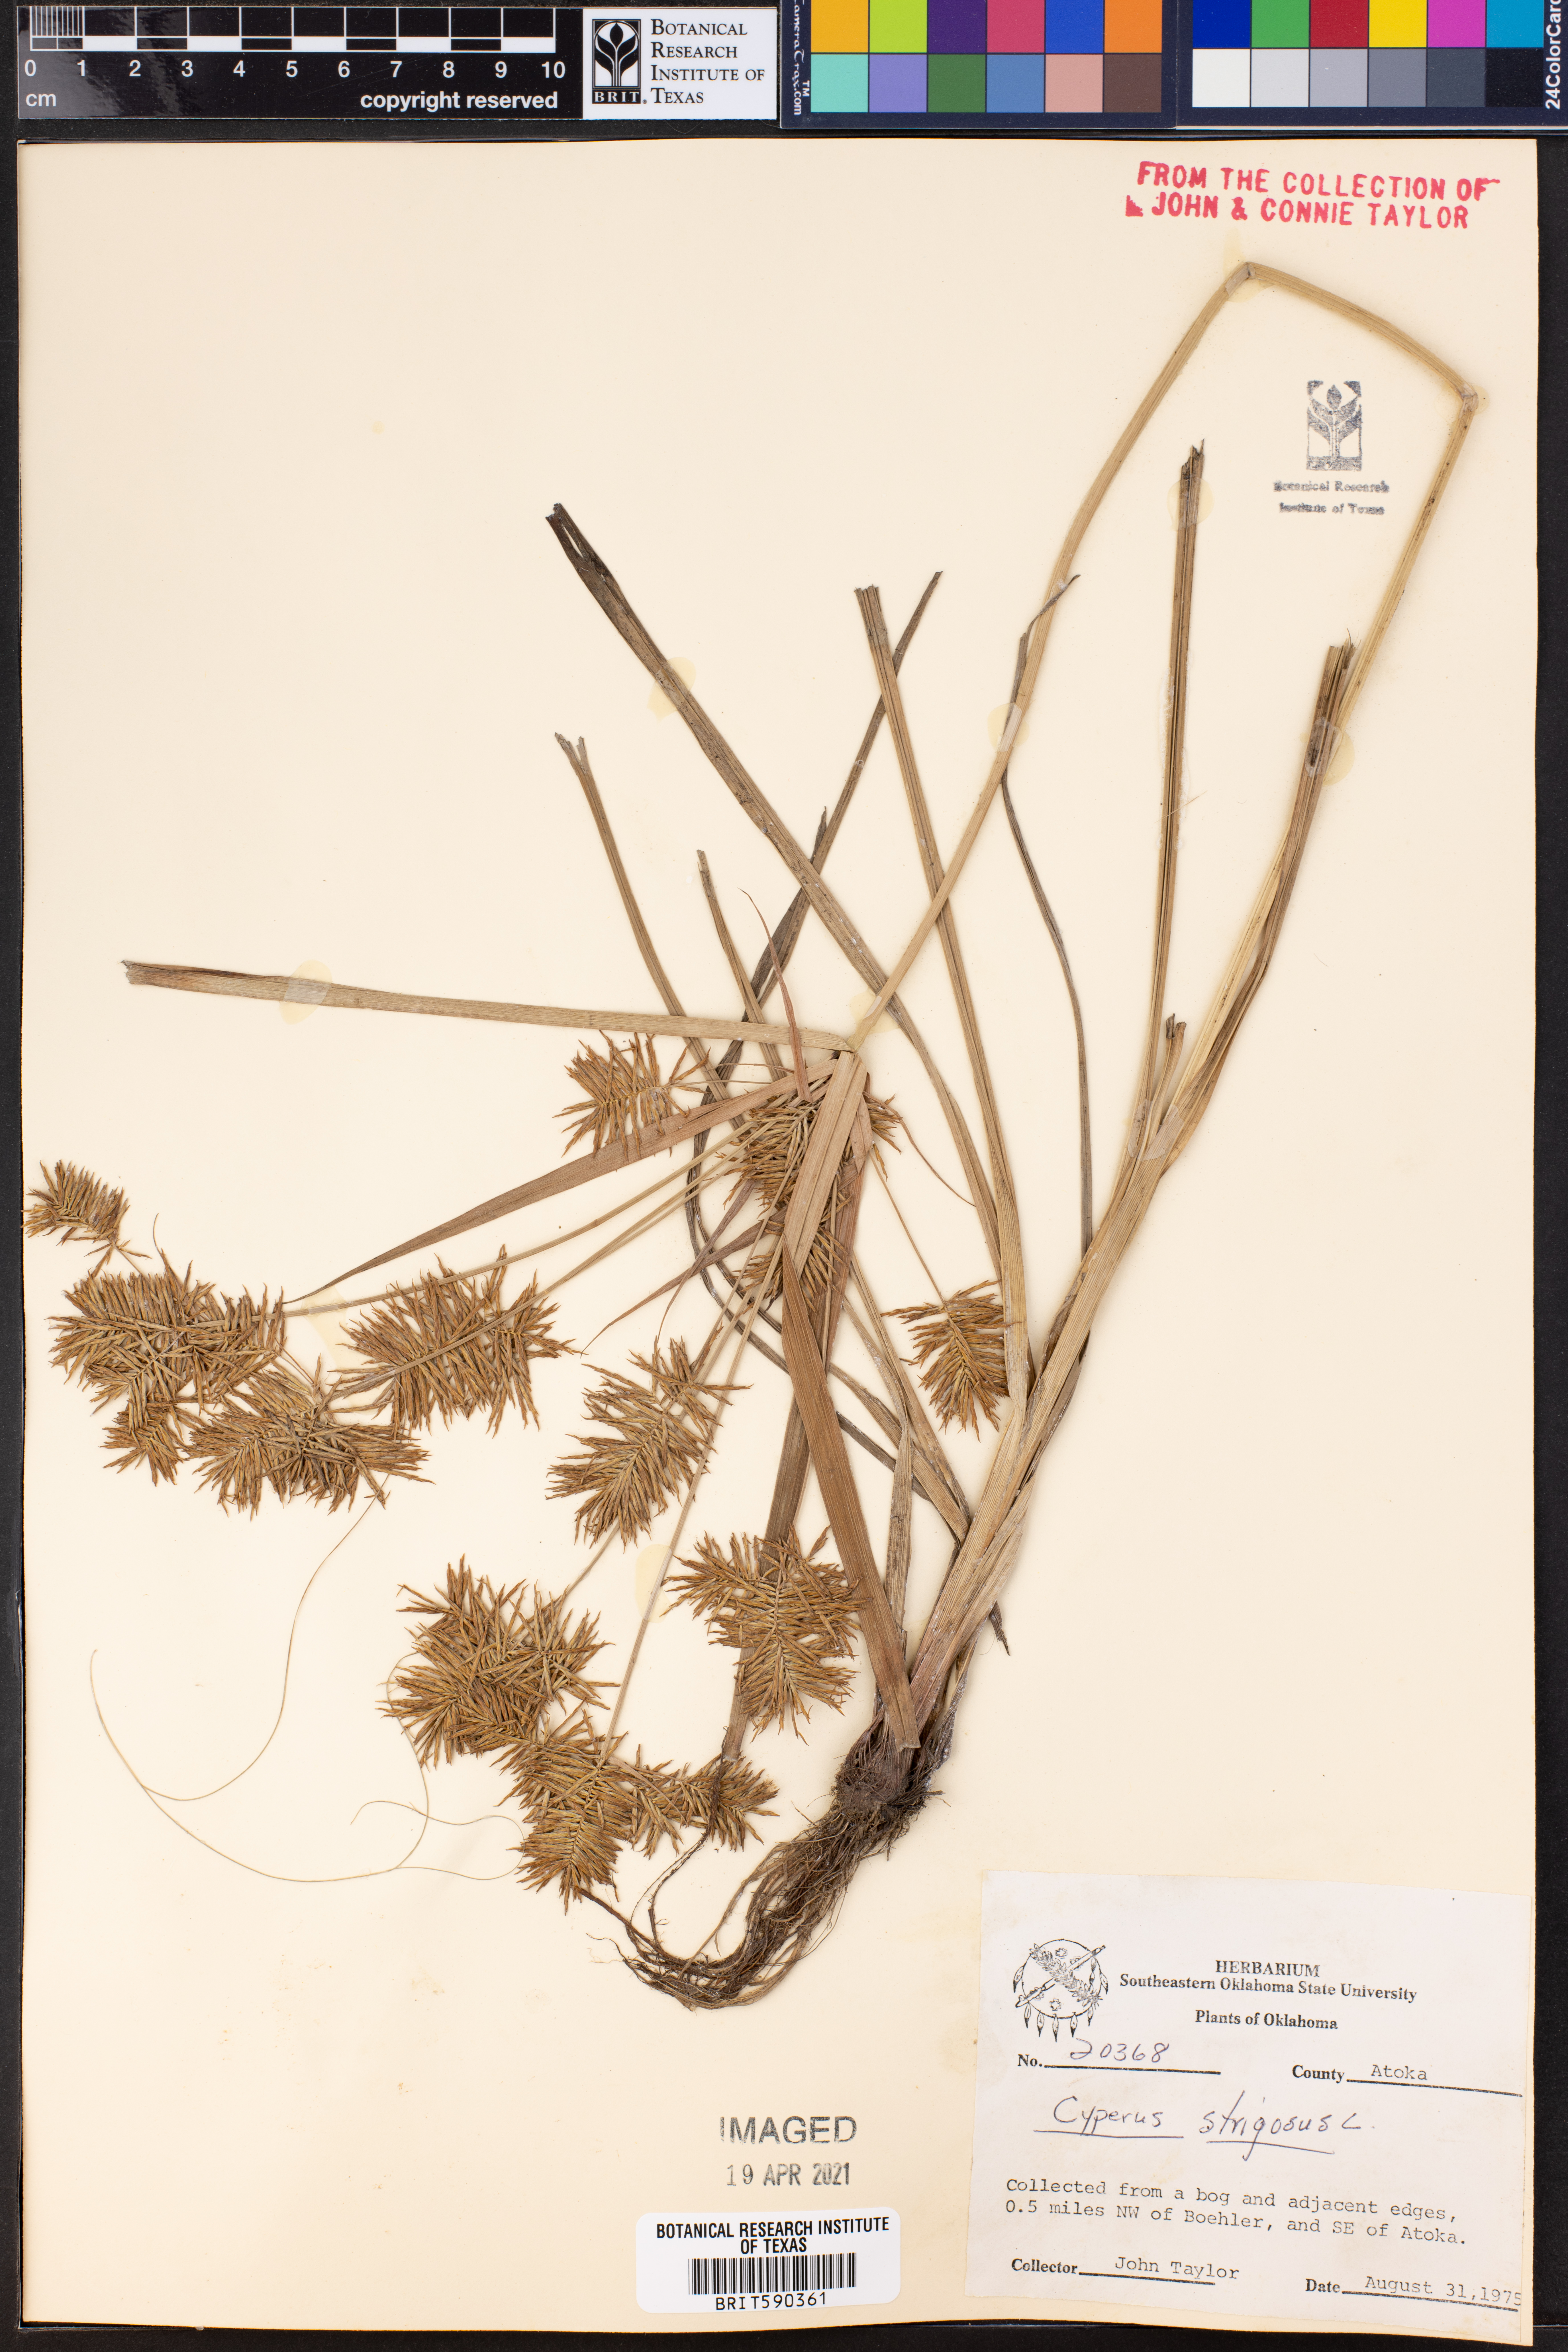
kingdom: Plantae
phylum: Tracheophyta
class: Liliopsida
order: Poales
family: Cyperaceae
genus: Cyperus
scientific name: Cyperus strigosus
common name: False nutsedge
